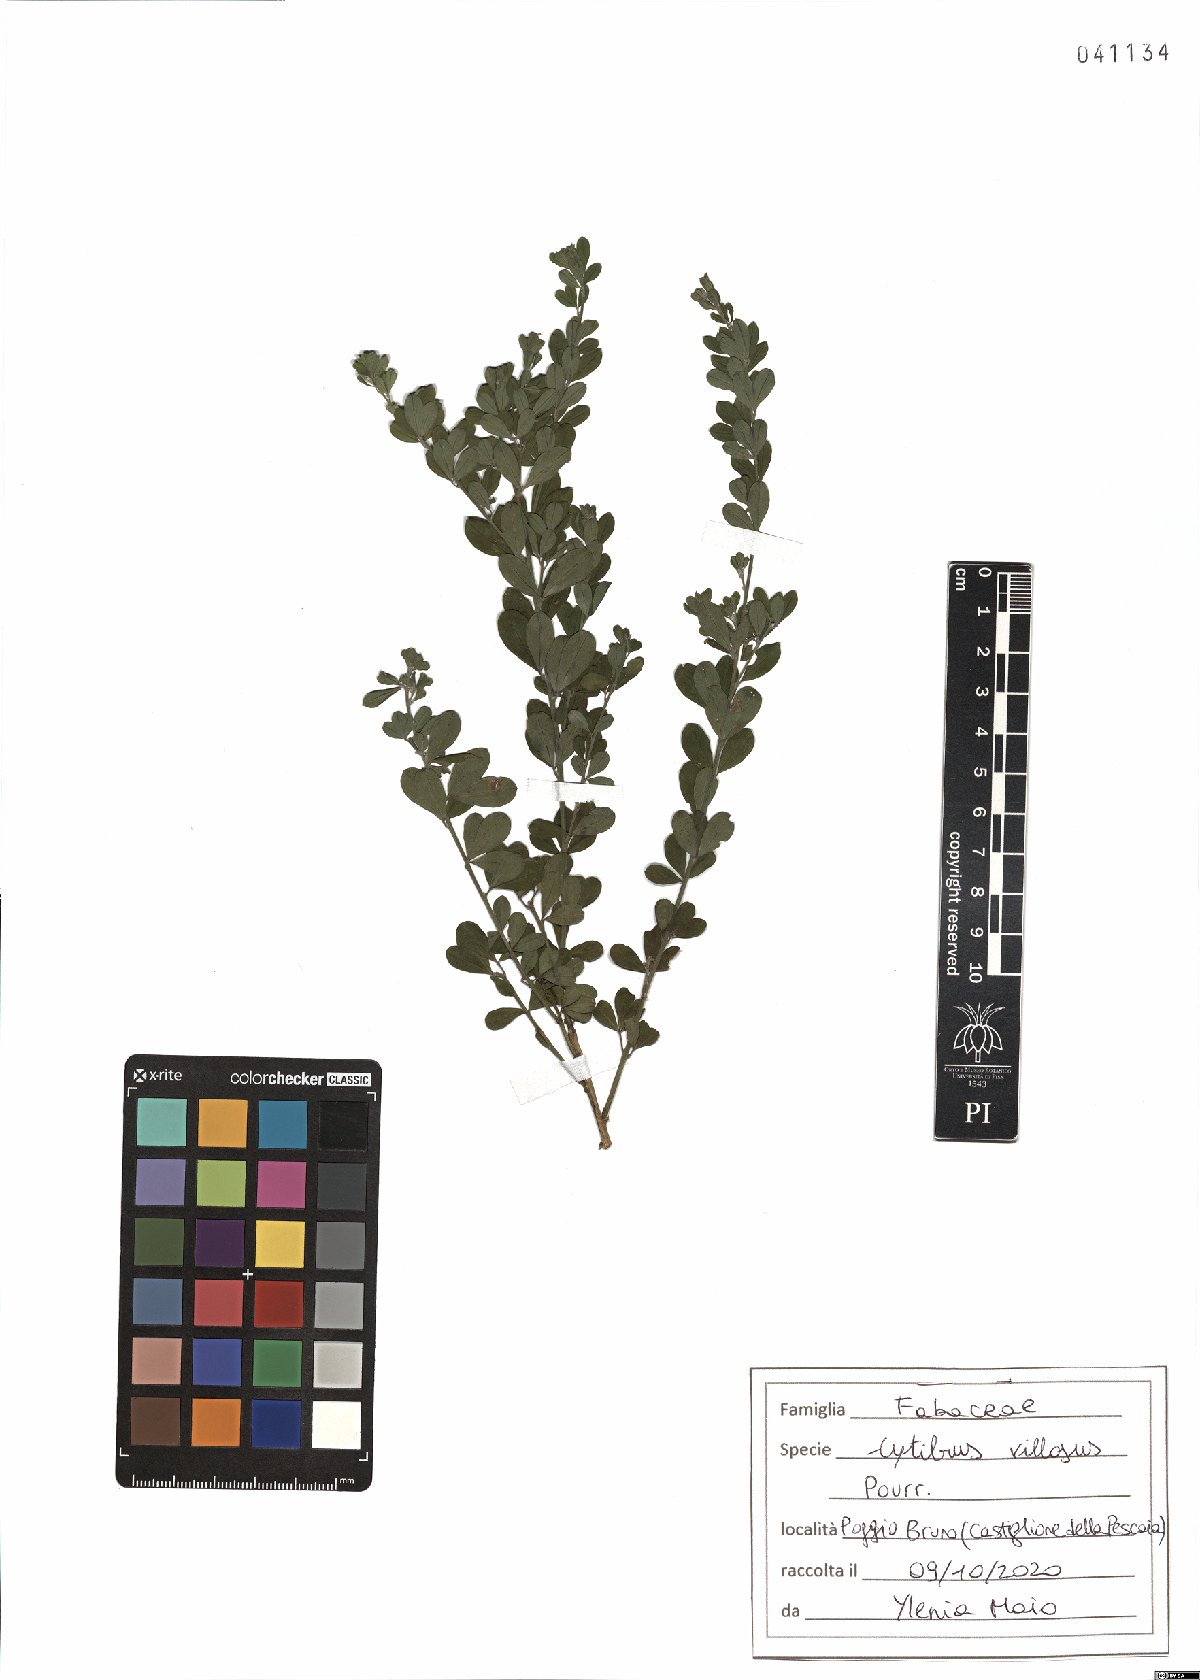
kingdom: Plantae
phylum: Tracheophyta
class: Magnoliopsida
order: Fabales
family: Fabaceae
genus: Cytisus
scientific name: Cytisus villosus
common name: Hairybroom
